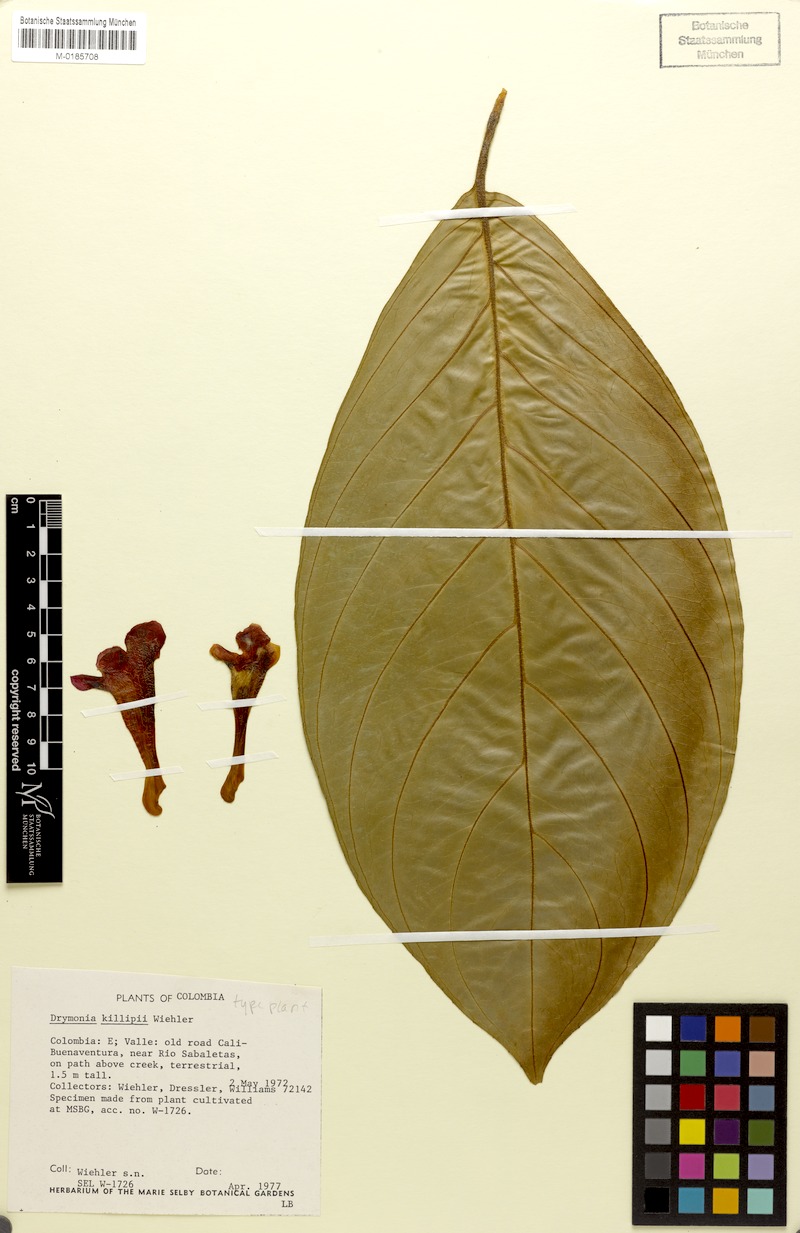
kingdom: Plantae
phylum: Tracheophyta
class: Magnoliopsida
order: Lamiales
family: Gesneriaceae
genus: Drymonia
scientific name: Drymonia killipii
